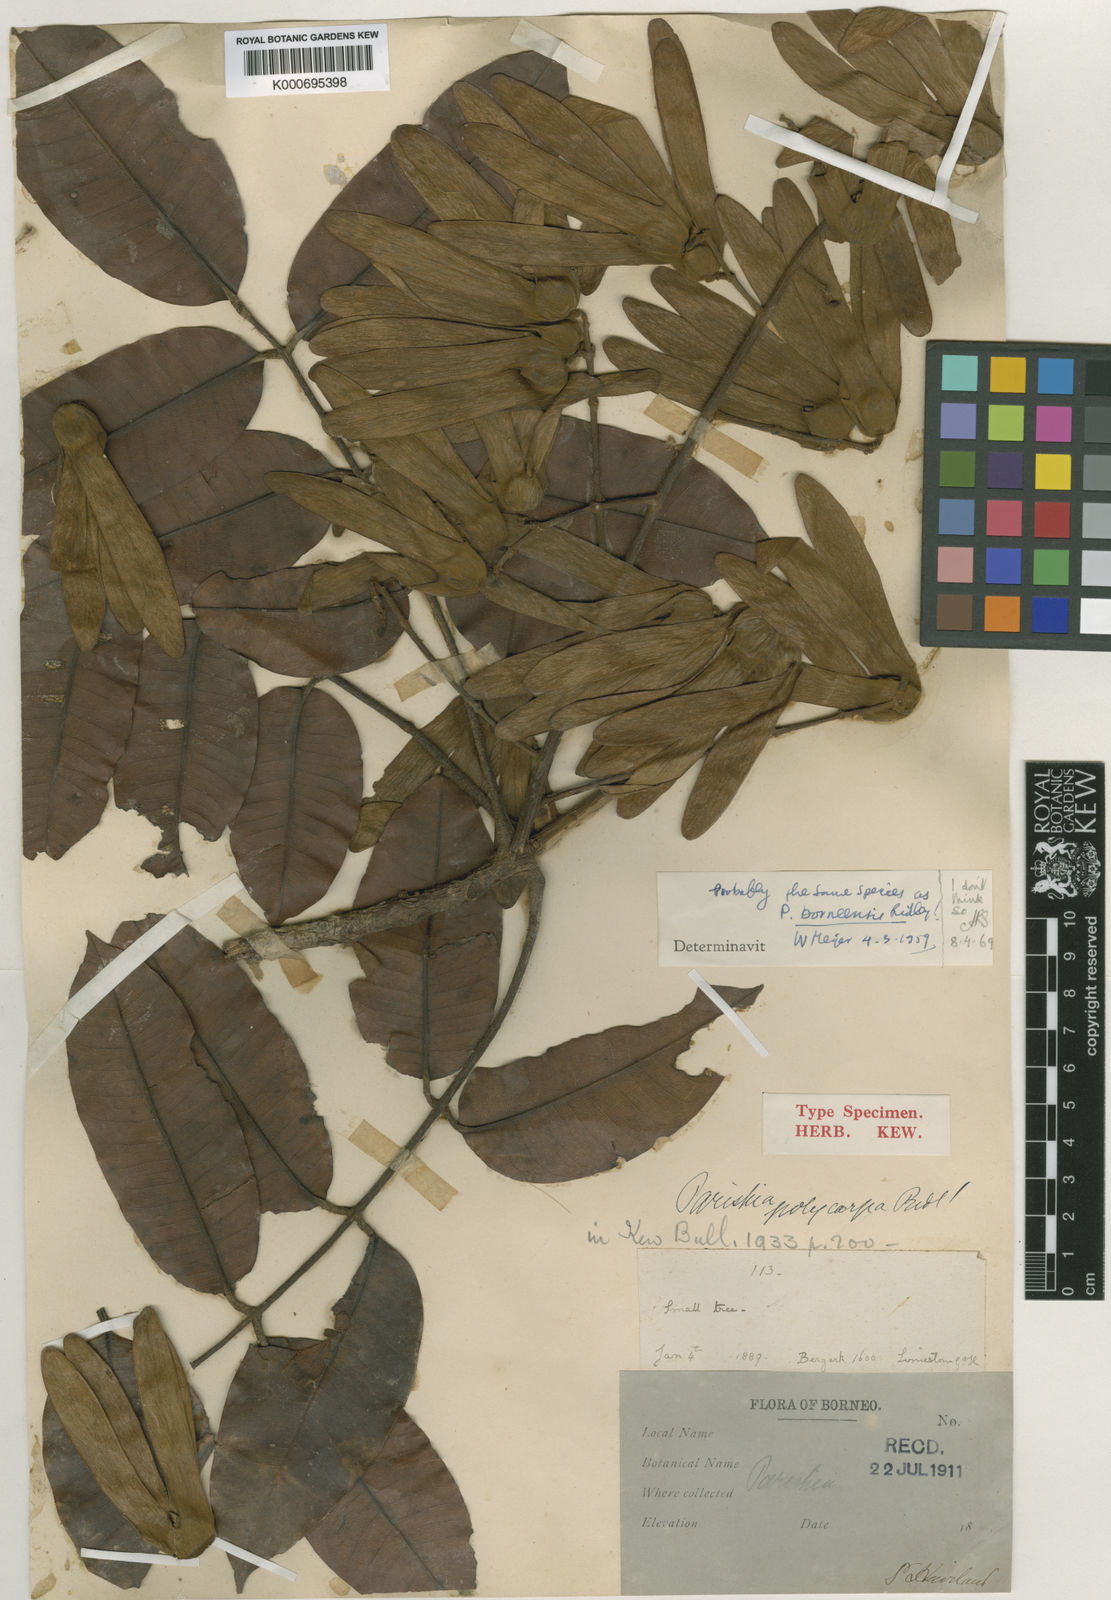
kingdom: Plantae
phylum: Tracheophyta
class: Magnoliopsida
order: Sapindales
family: Anacardiaceae
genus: Parishia
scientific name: Parishia maingayi
